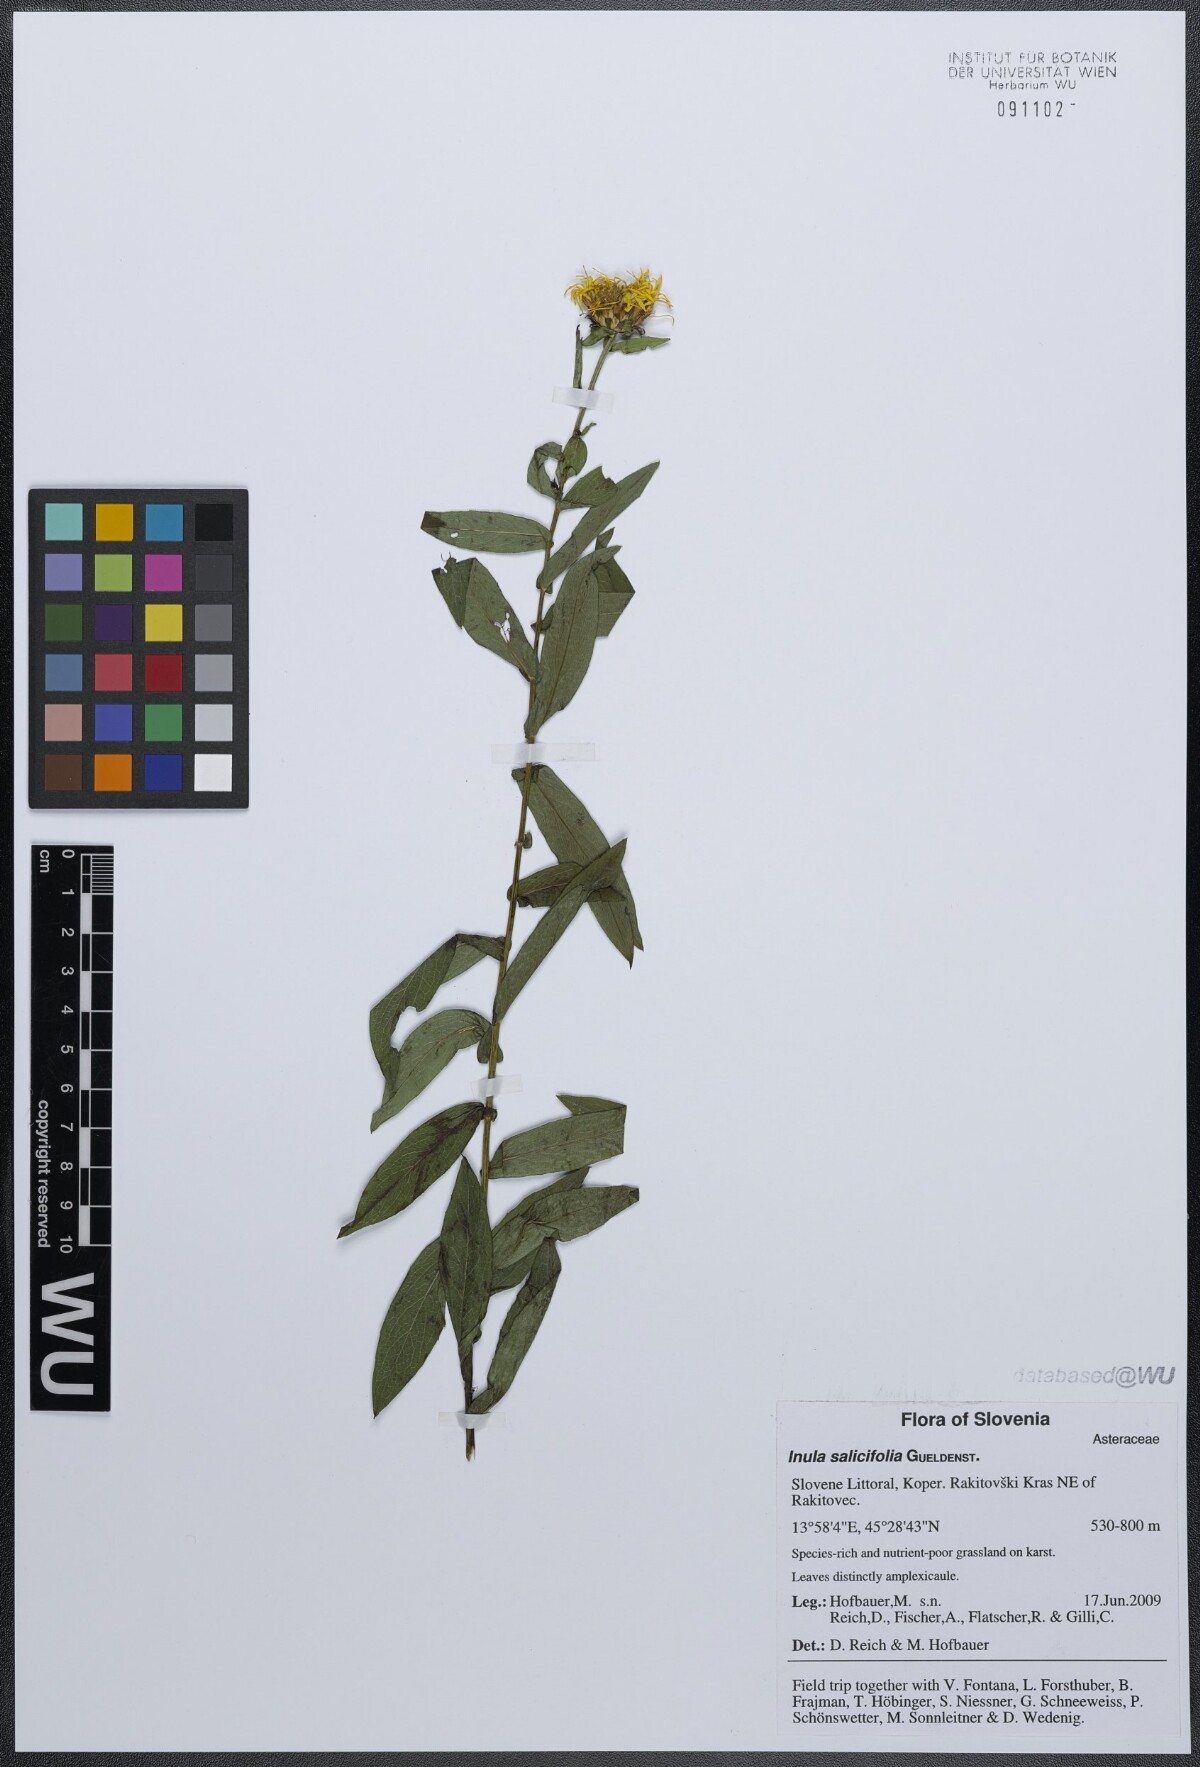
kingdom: Plantae
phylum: Tracheophyta
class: Magnoliopsida
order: Asterales
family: Asteraceae
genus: Pentanema
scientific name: Pentanema salicinum
